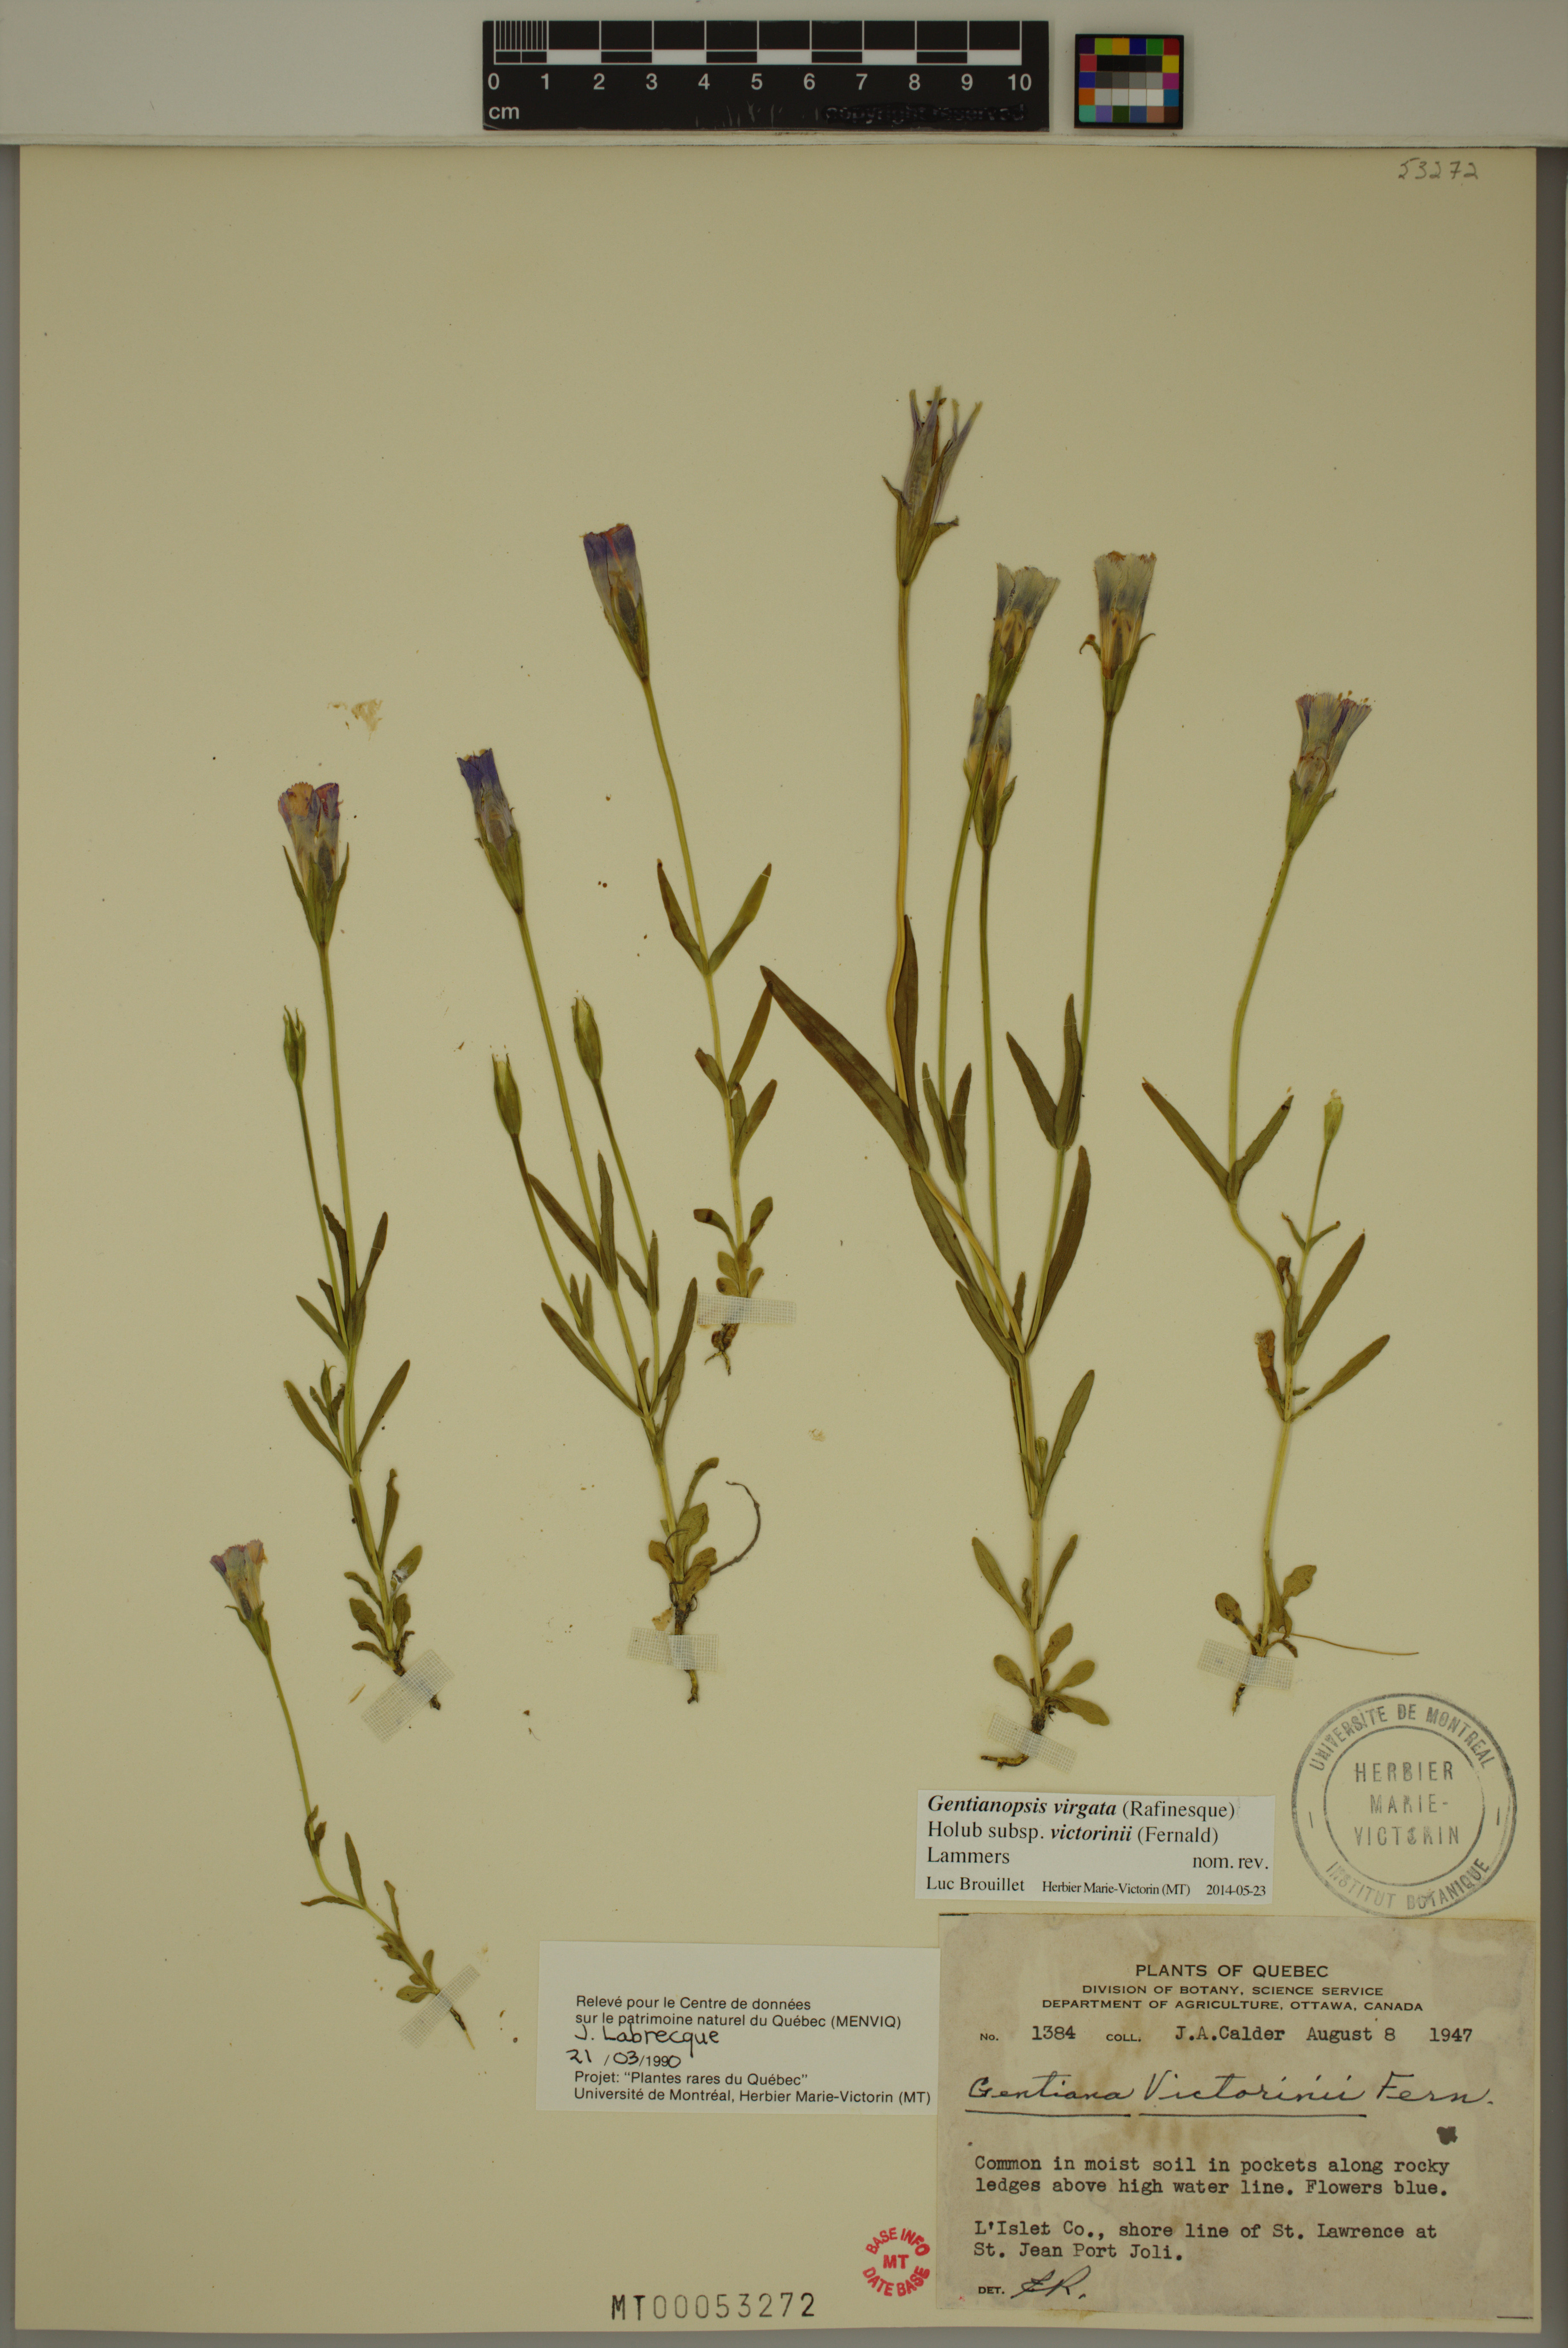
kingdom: Plantae
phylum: Tracheophyta
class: Magnoliopsida
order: Gentianales
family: Gentianaceae
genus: Gentianopsis
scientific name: Gentianopsis victorinii
